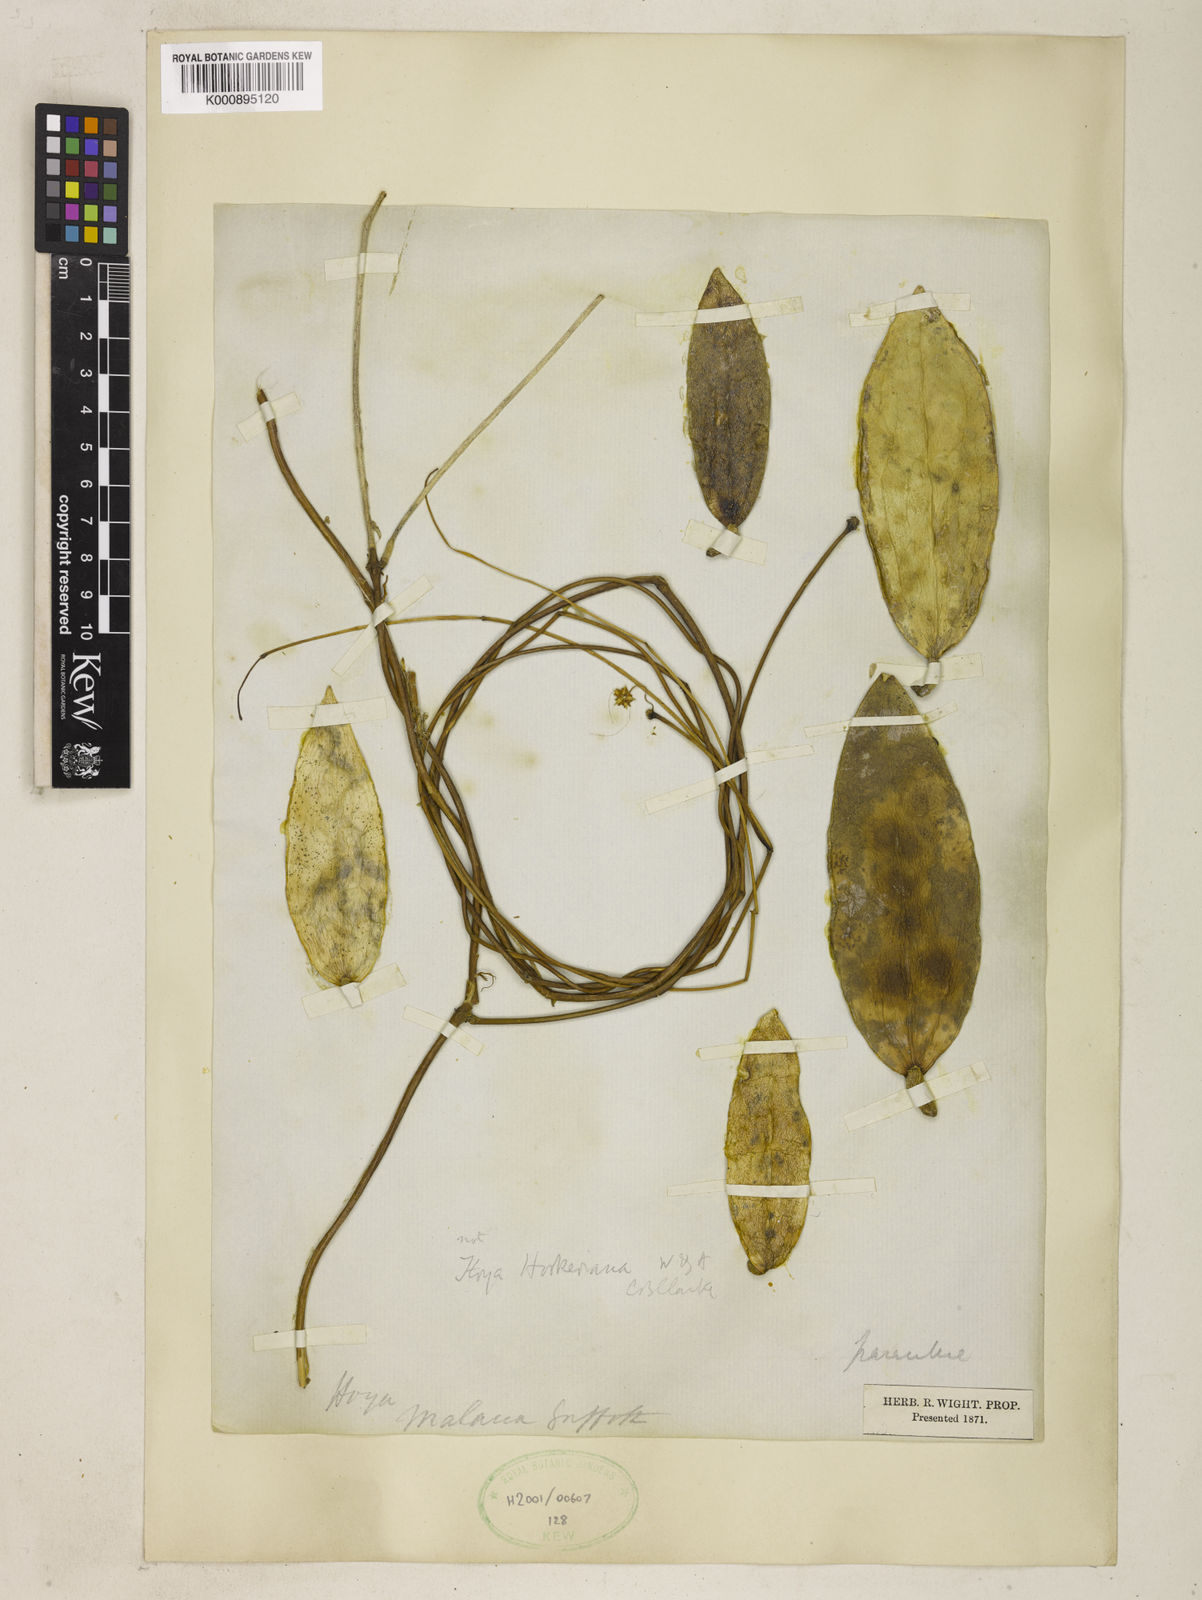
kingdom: Plantae
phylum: Tracheophyta
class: Magnoliopsida
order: Gentianales
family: Apocynaceae
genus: Hoya
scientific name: Hoya verticillata
